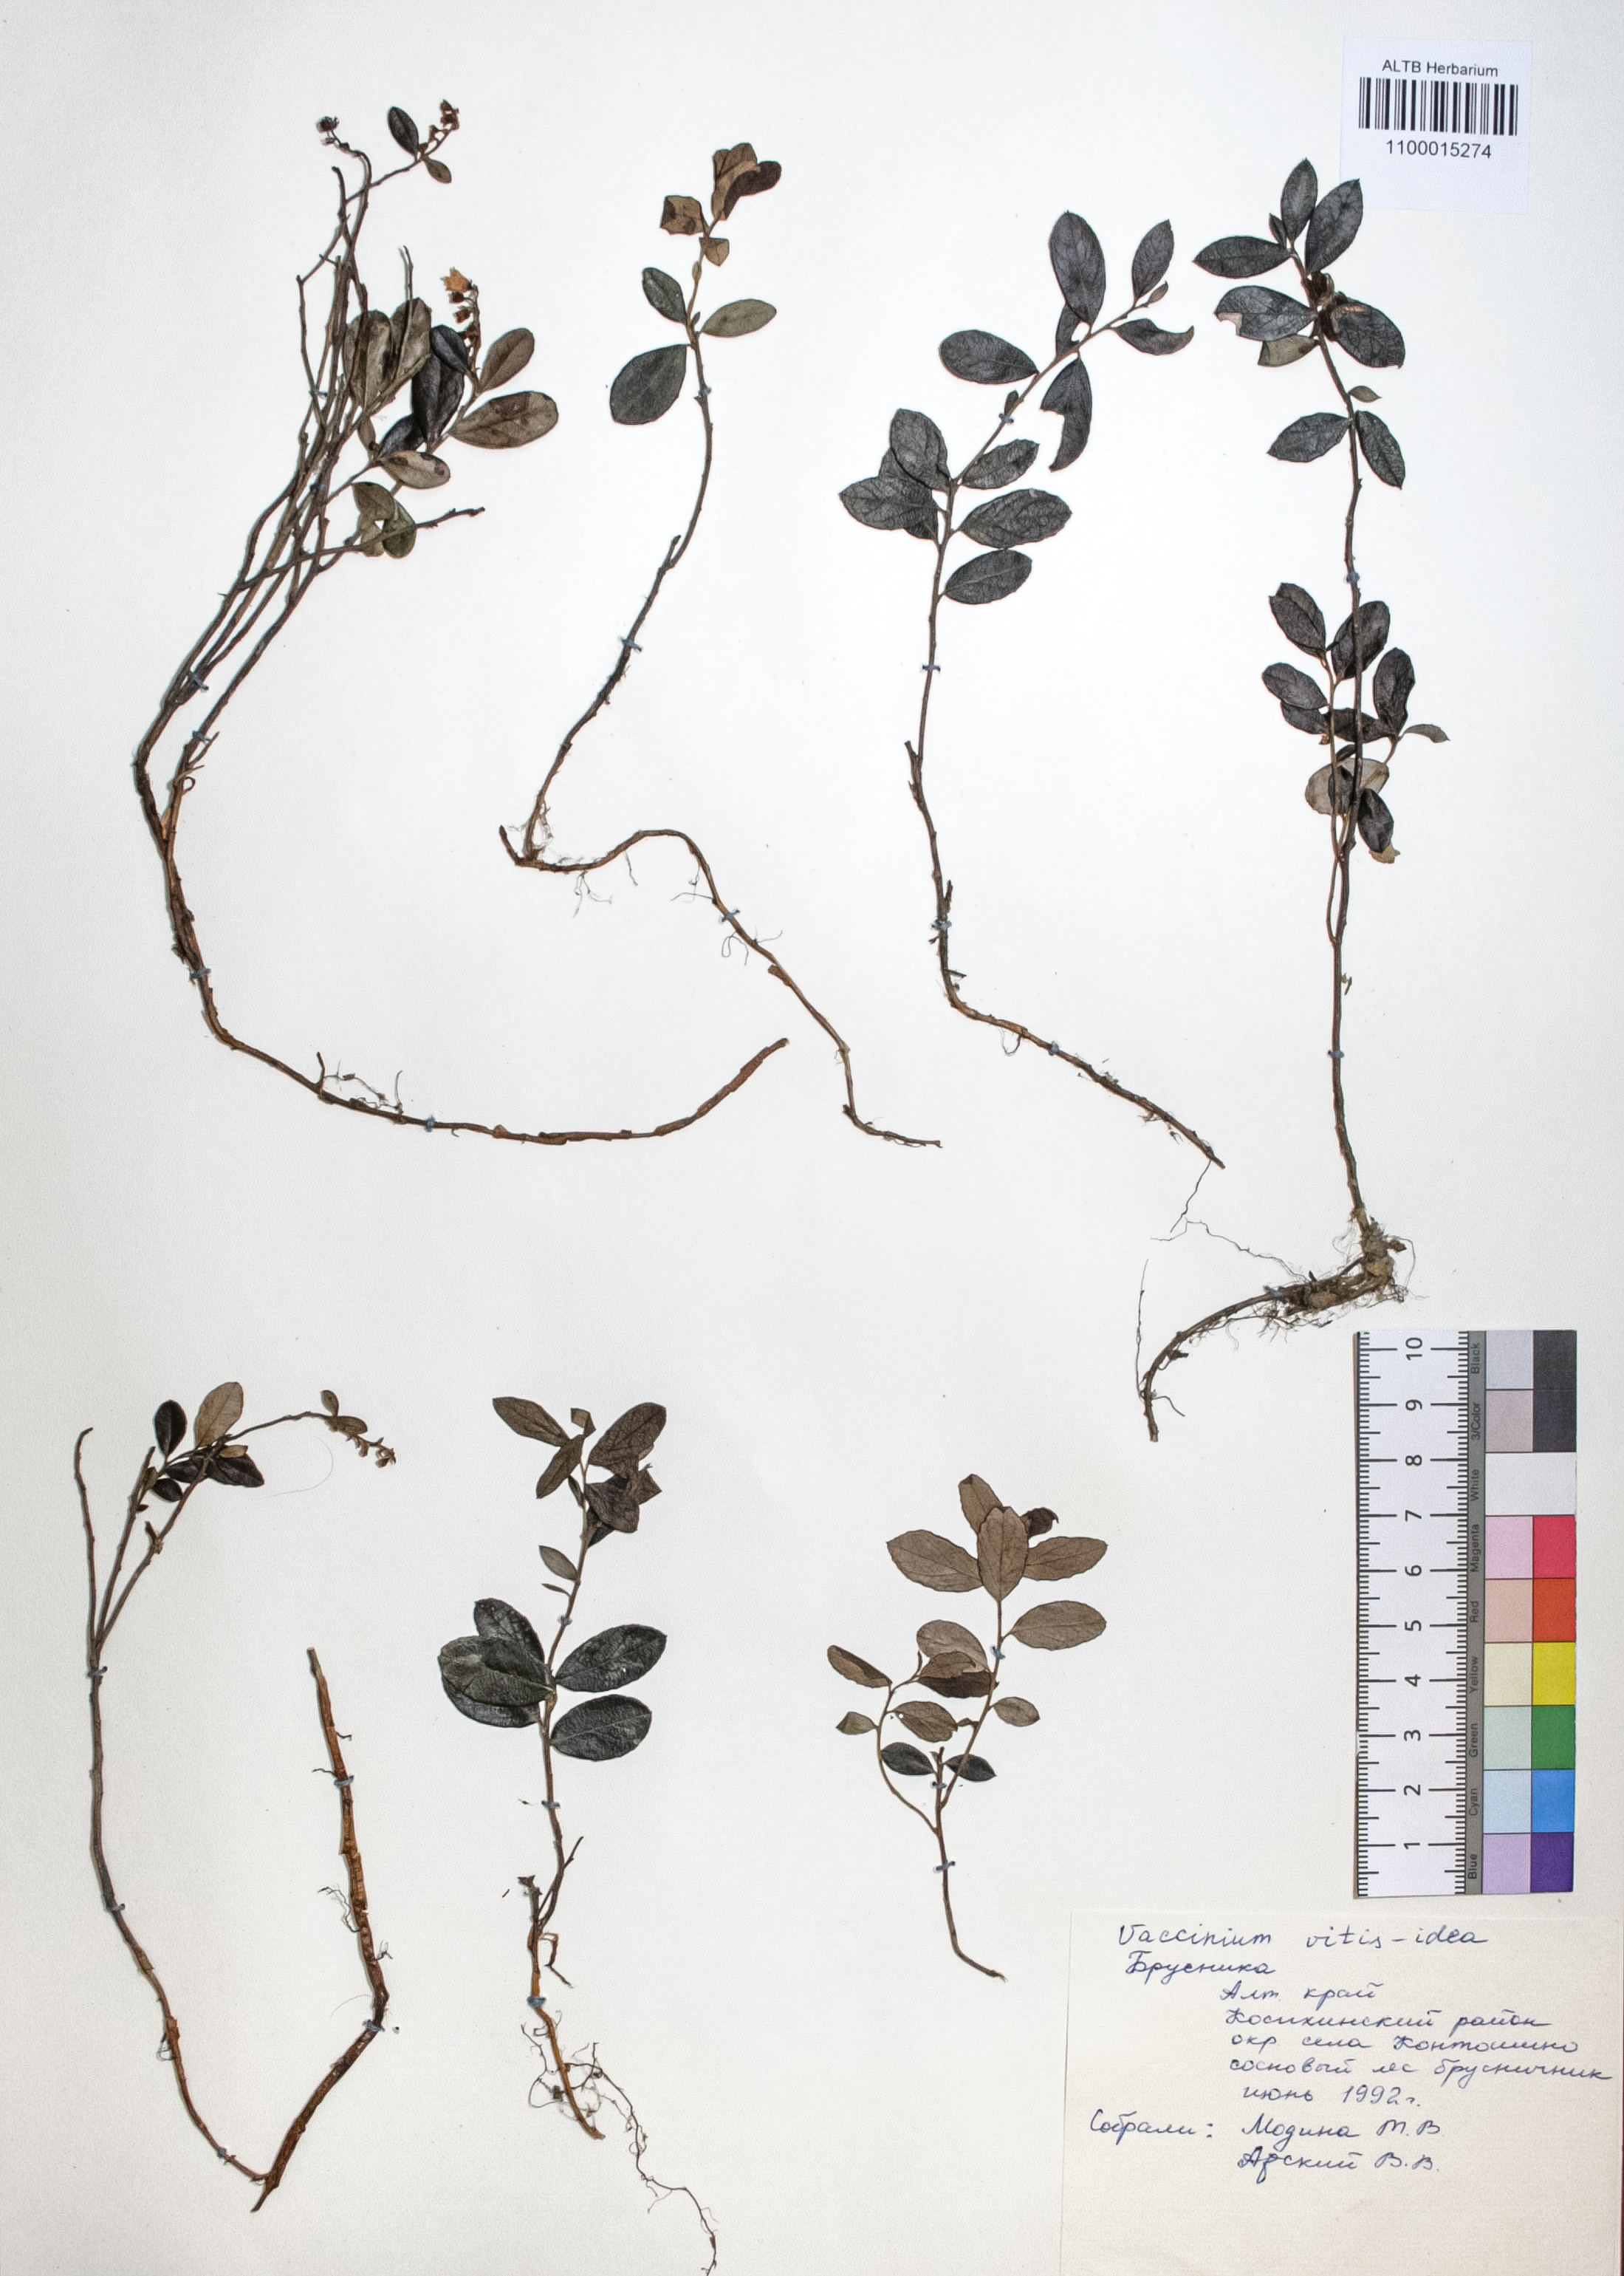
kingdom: Plantae
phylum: Tracheophyta
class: Magnoliopsida
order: Ericales
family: Ericaceae
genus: Vaccinium
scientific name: Vaccinium vitis-idaea
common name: Cowberry
